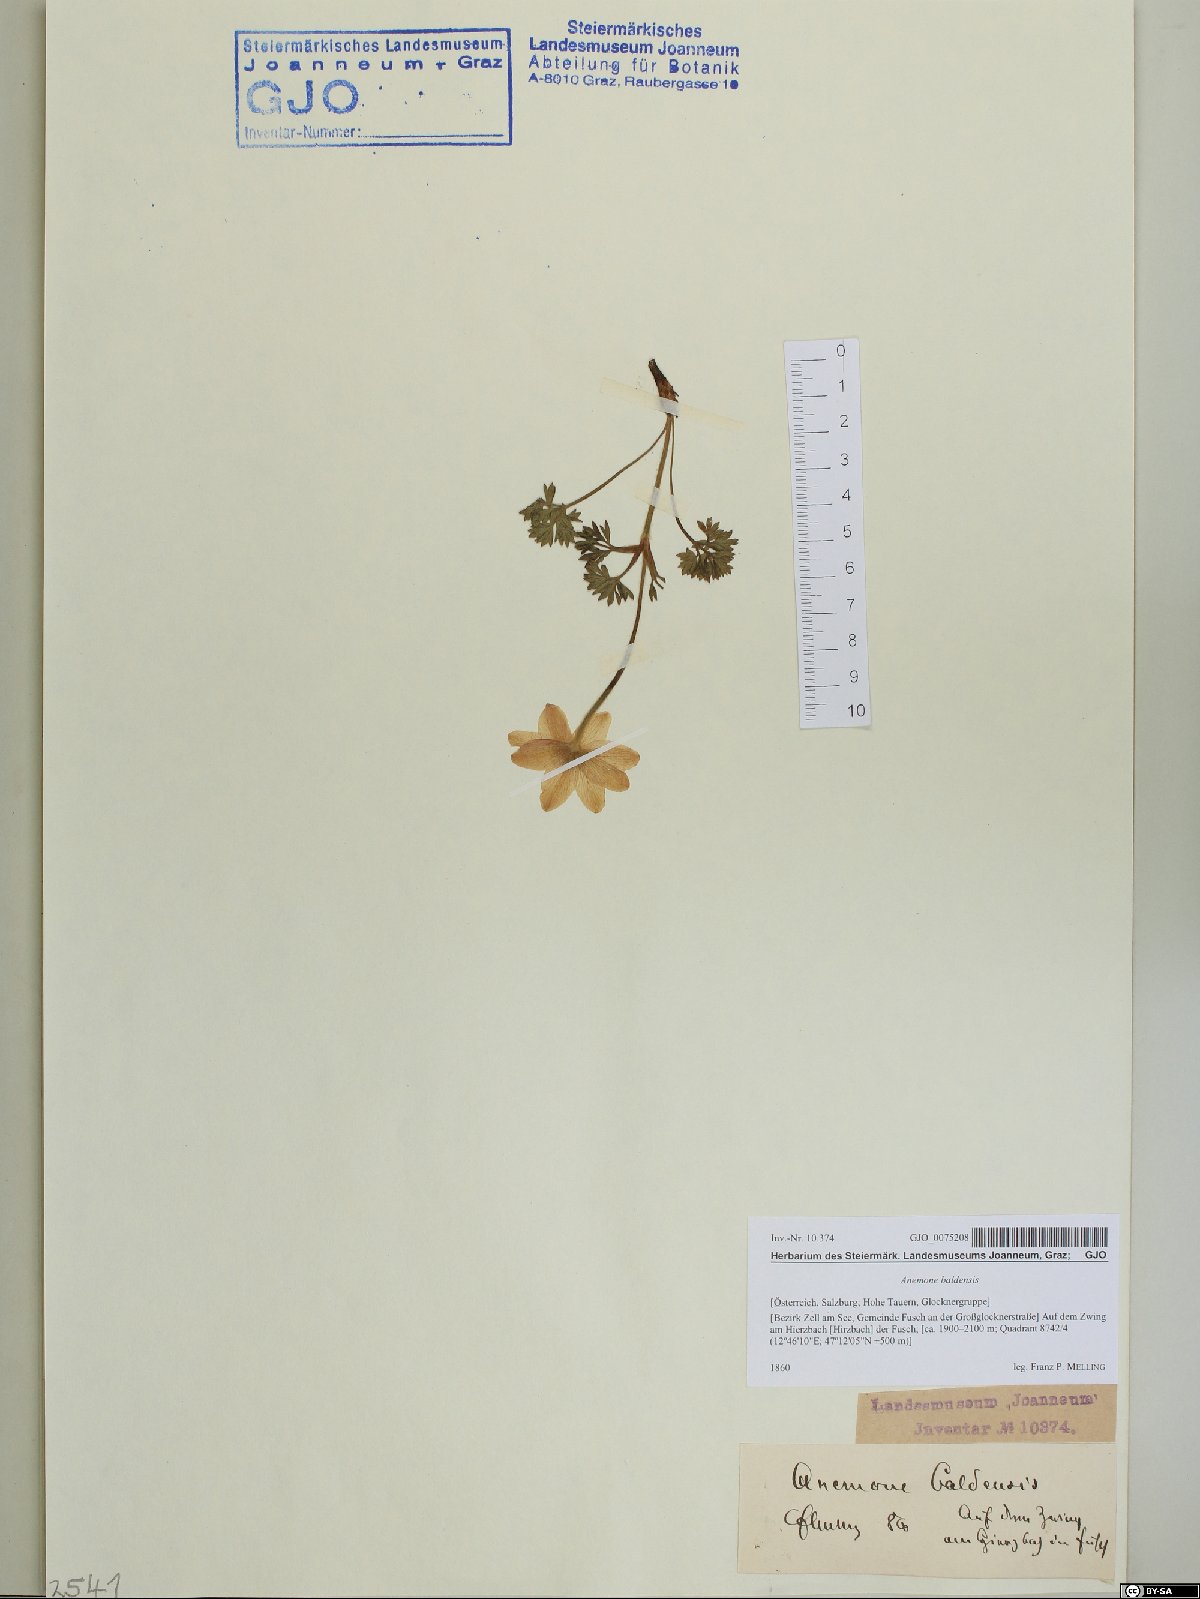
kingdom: Plantae
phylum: Tracheophyta
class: Magnoliopsida
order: Ranunculales
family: Ranunculaceae
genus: Anemone
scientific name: Anemone baldensis
